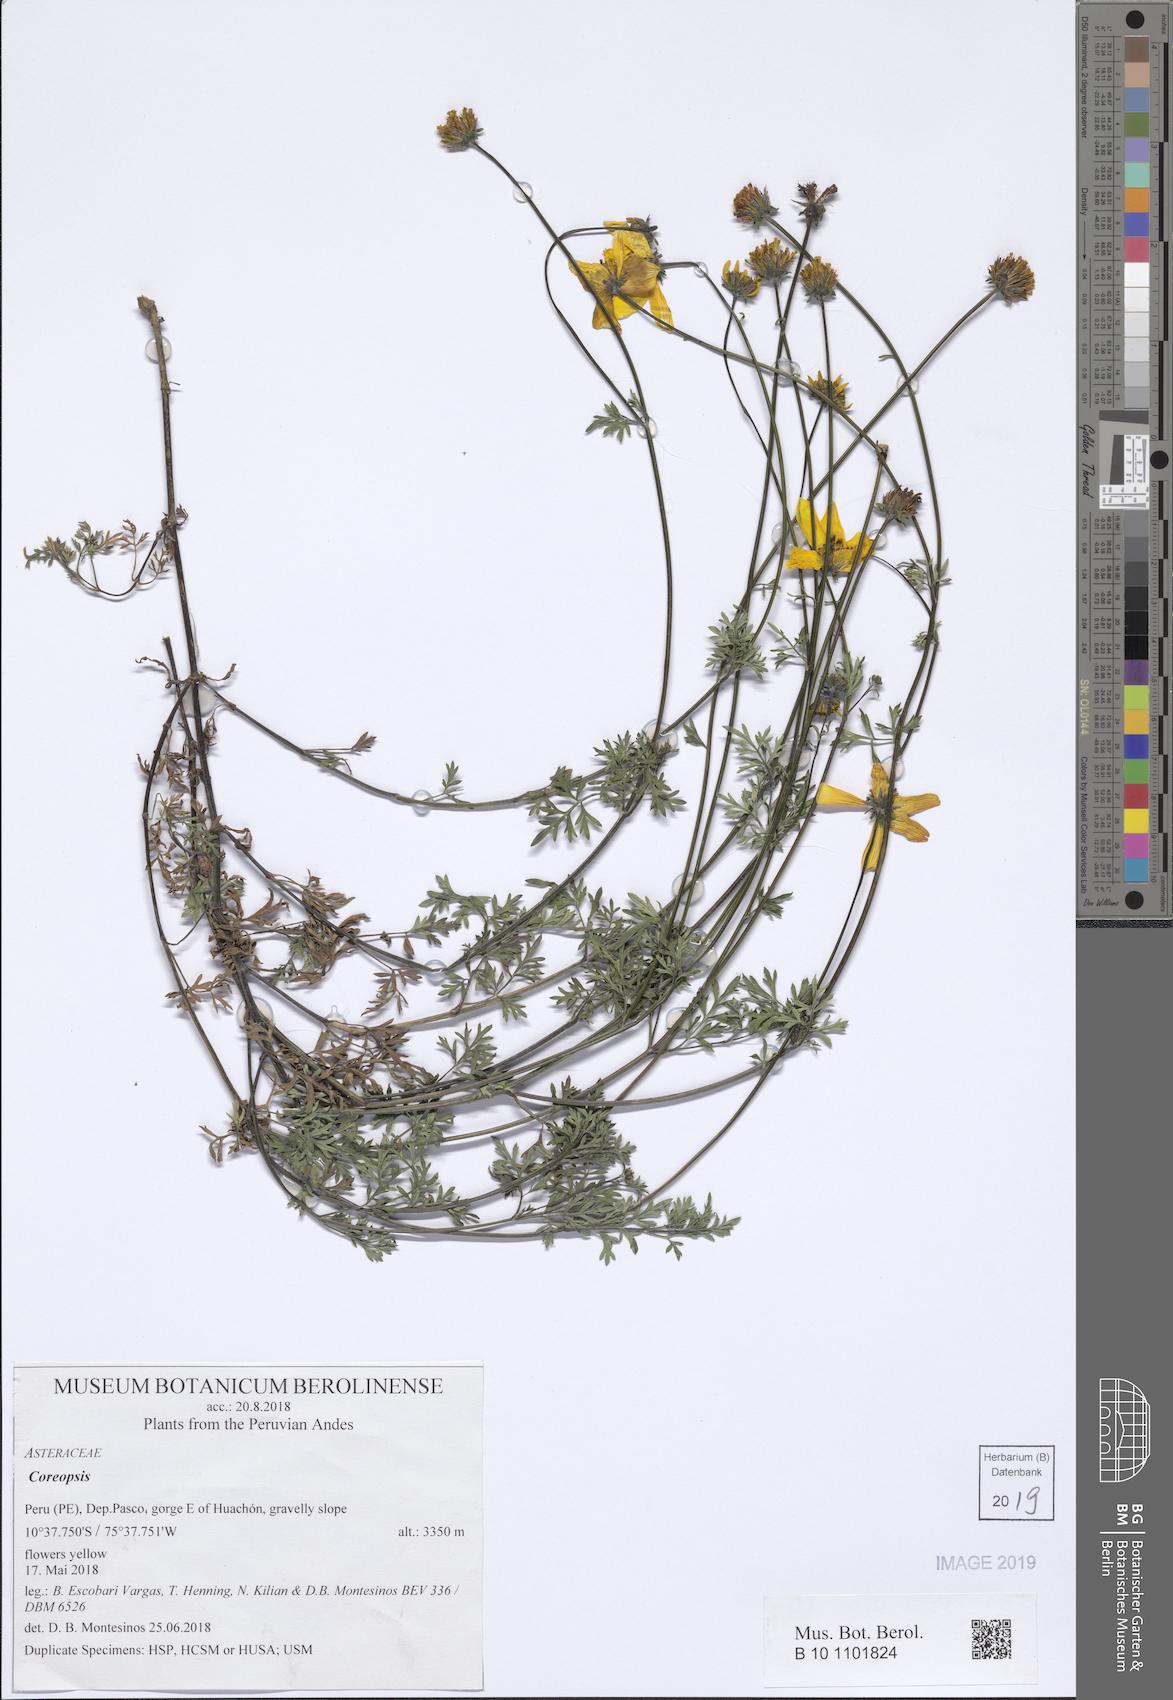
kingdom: Plantae
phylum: Tracheophyta
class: Magnoliopsida
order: Asterales
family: Asteraceae
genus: Coreopsis
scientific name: Coreopsis
